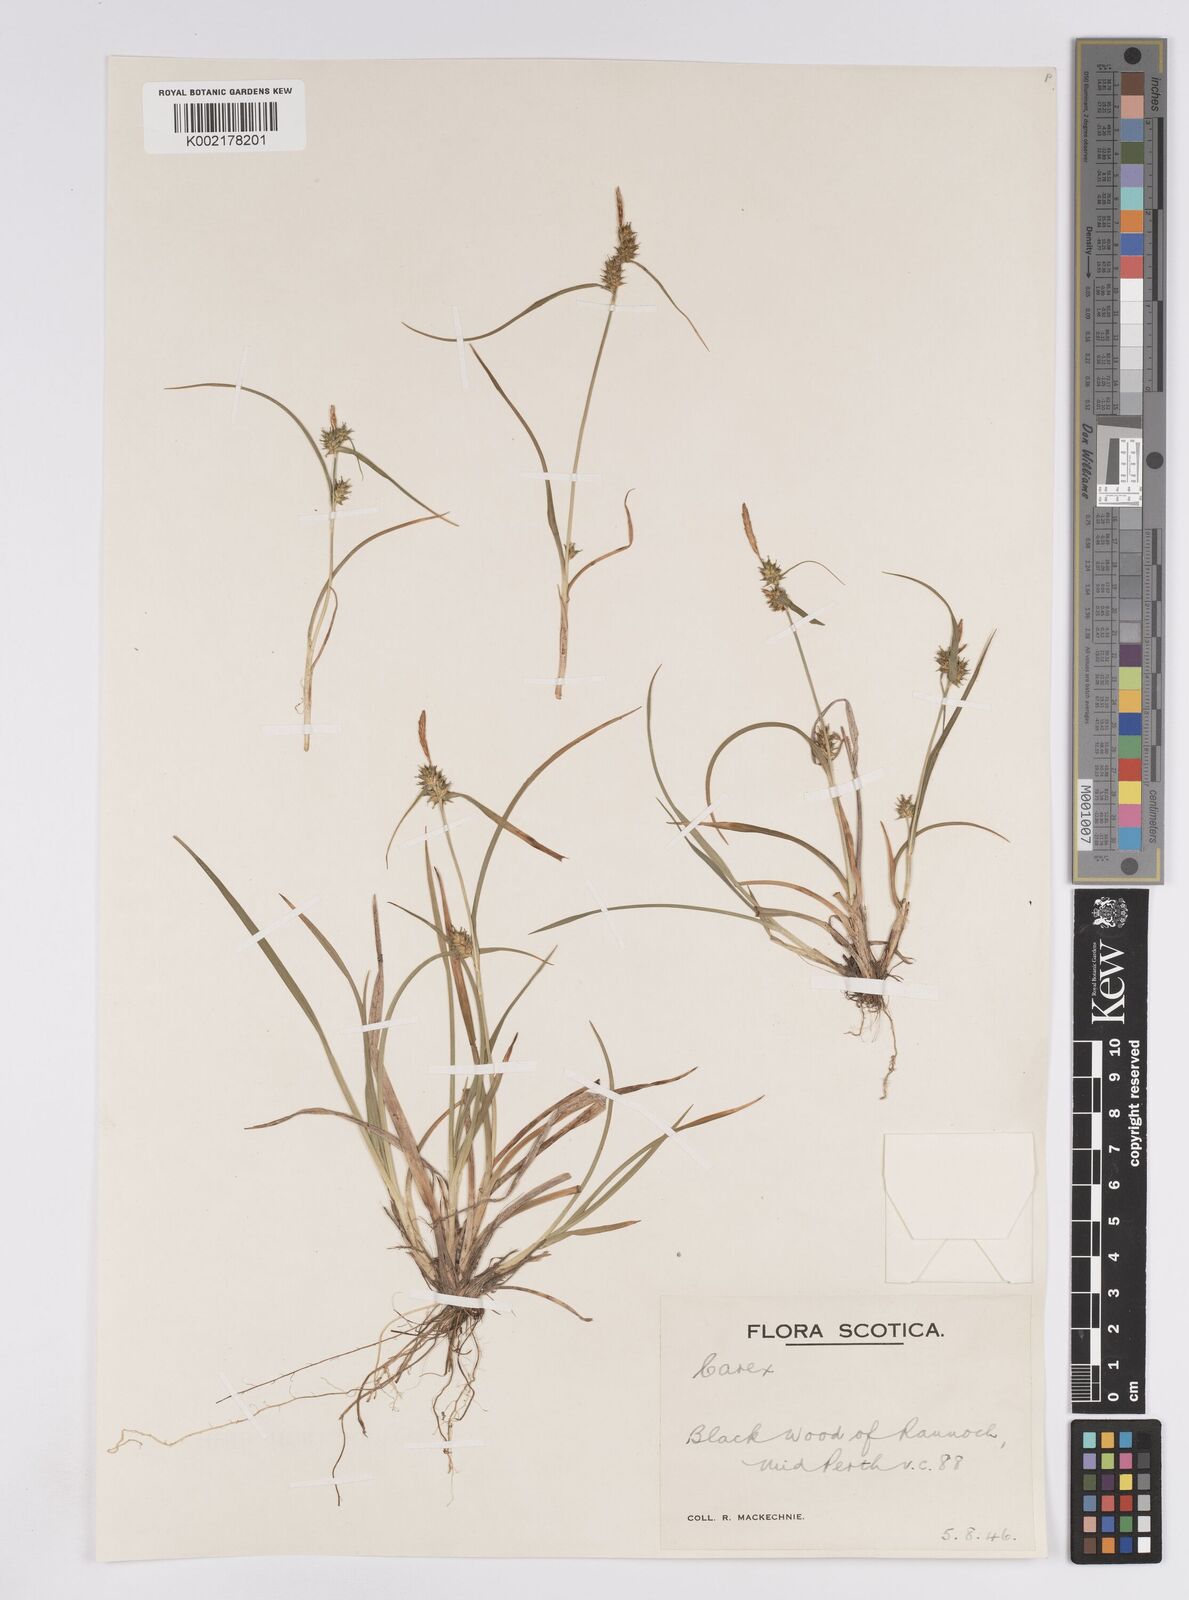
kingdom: Plantae
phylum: Tracheophyta
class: Liliopsida
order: Poales
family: Cyperaceae
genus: Carex
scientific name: Carex demissa
